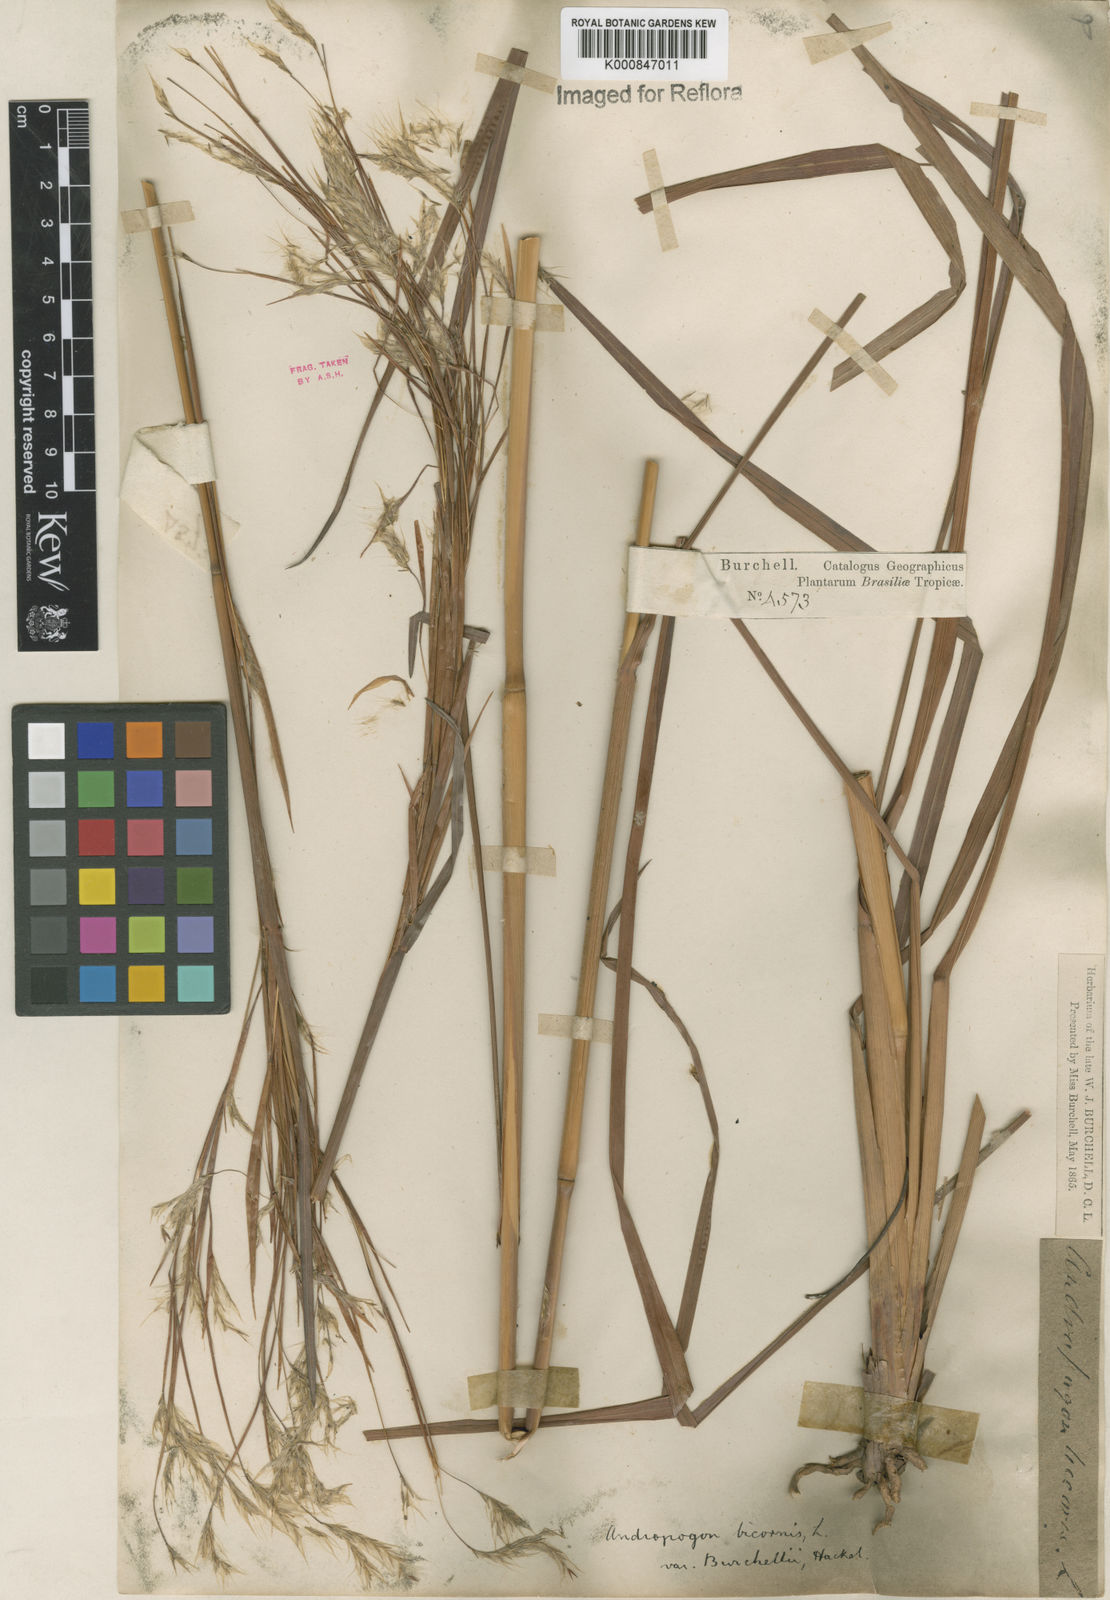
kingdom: Plantae
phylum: Tracheophyta
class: Liliopsida
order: Poales
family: Poaceae
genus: Andropogon
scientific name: Andropogon
